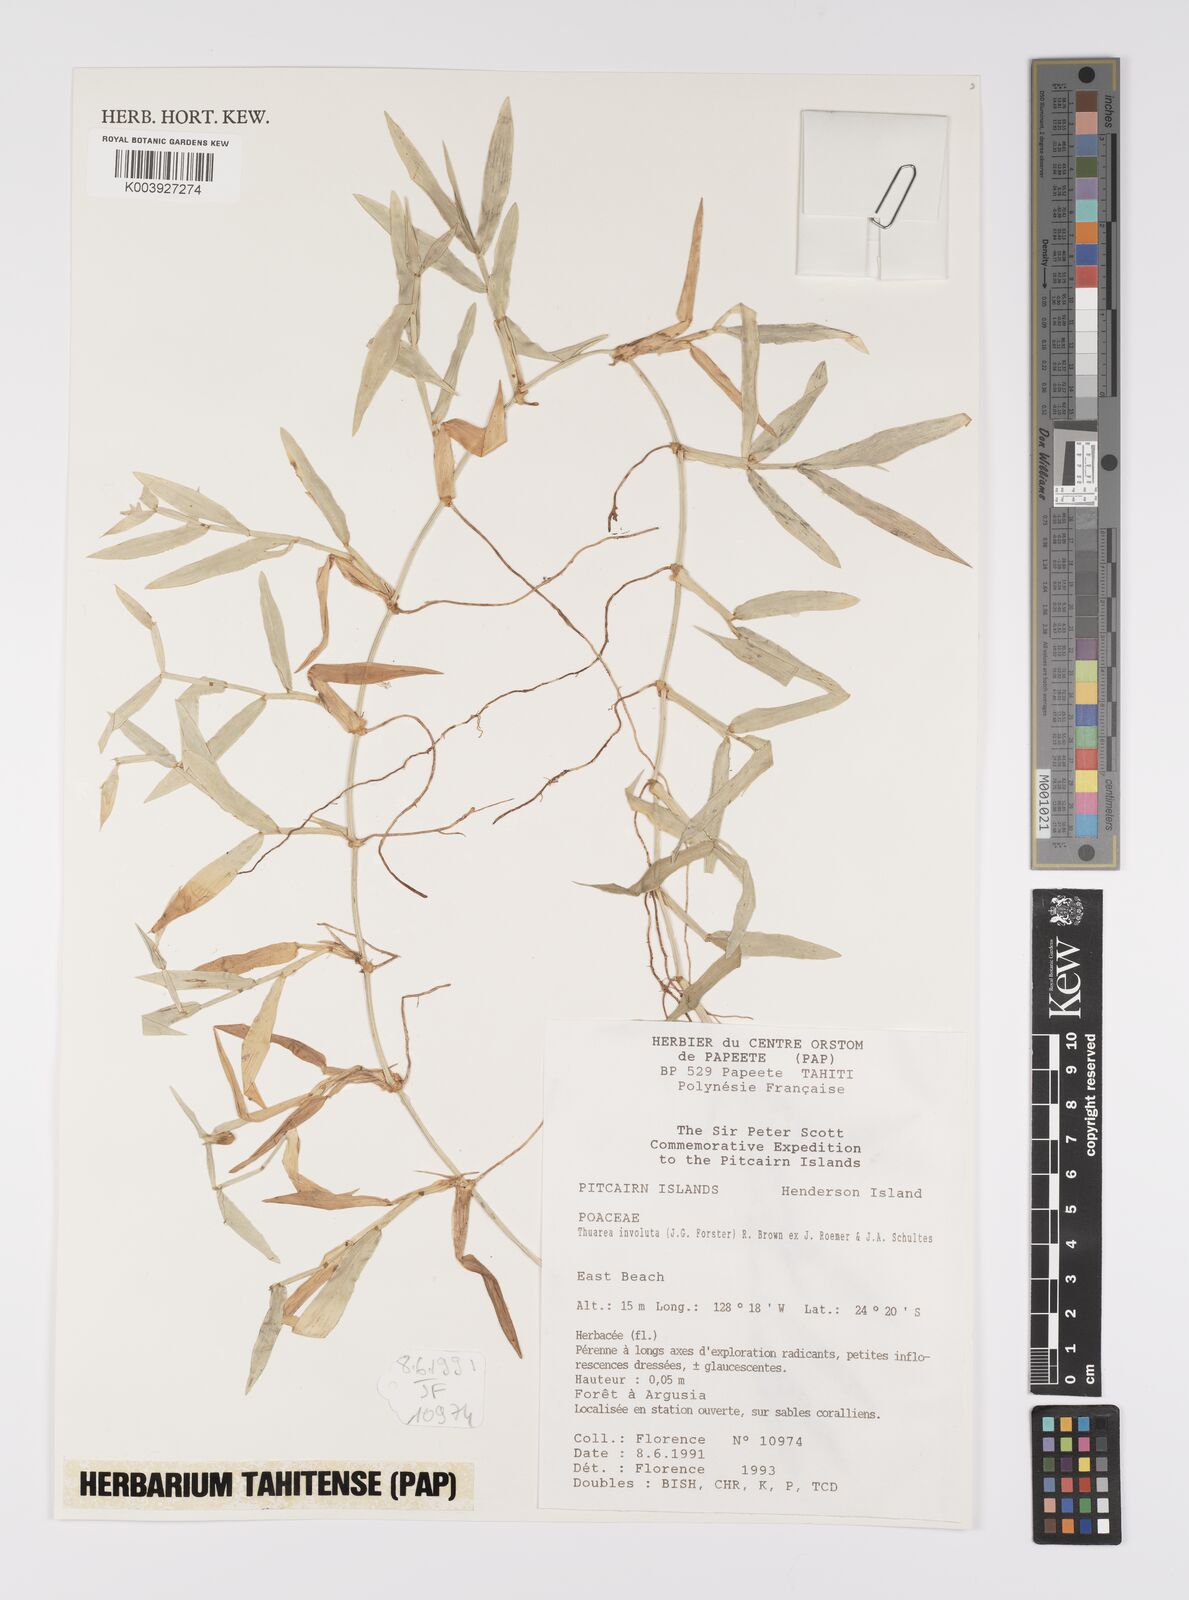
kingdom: Plantae
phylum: Tracheophyta
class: Liliopsida
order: Poales
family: Poaceae
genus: Thuarea
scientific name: Thuarea involuta
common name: Tropical beach grass
